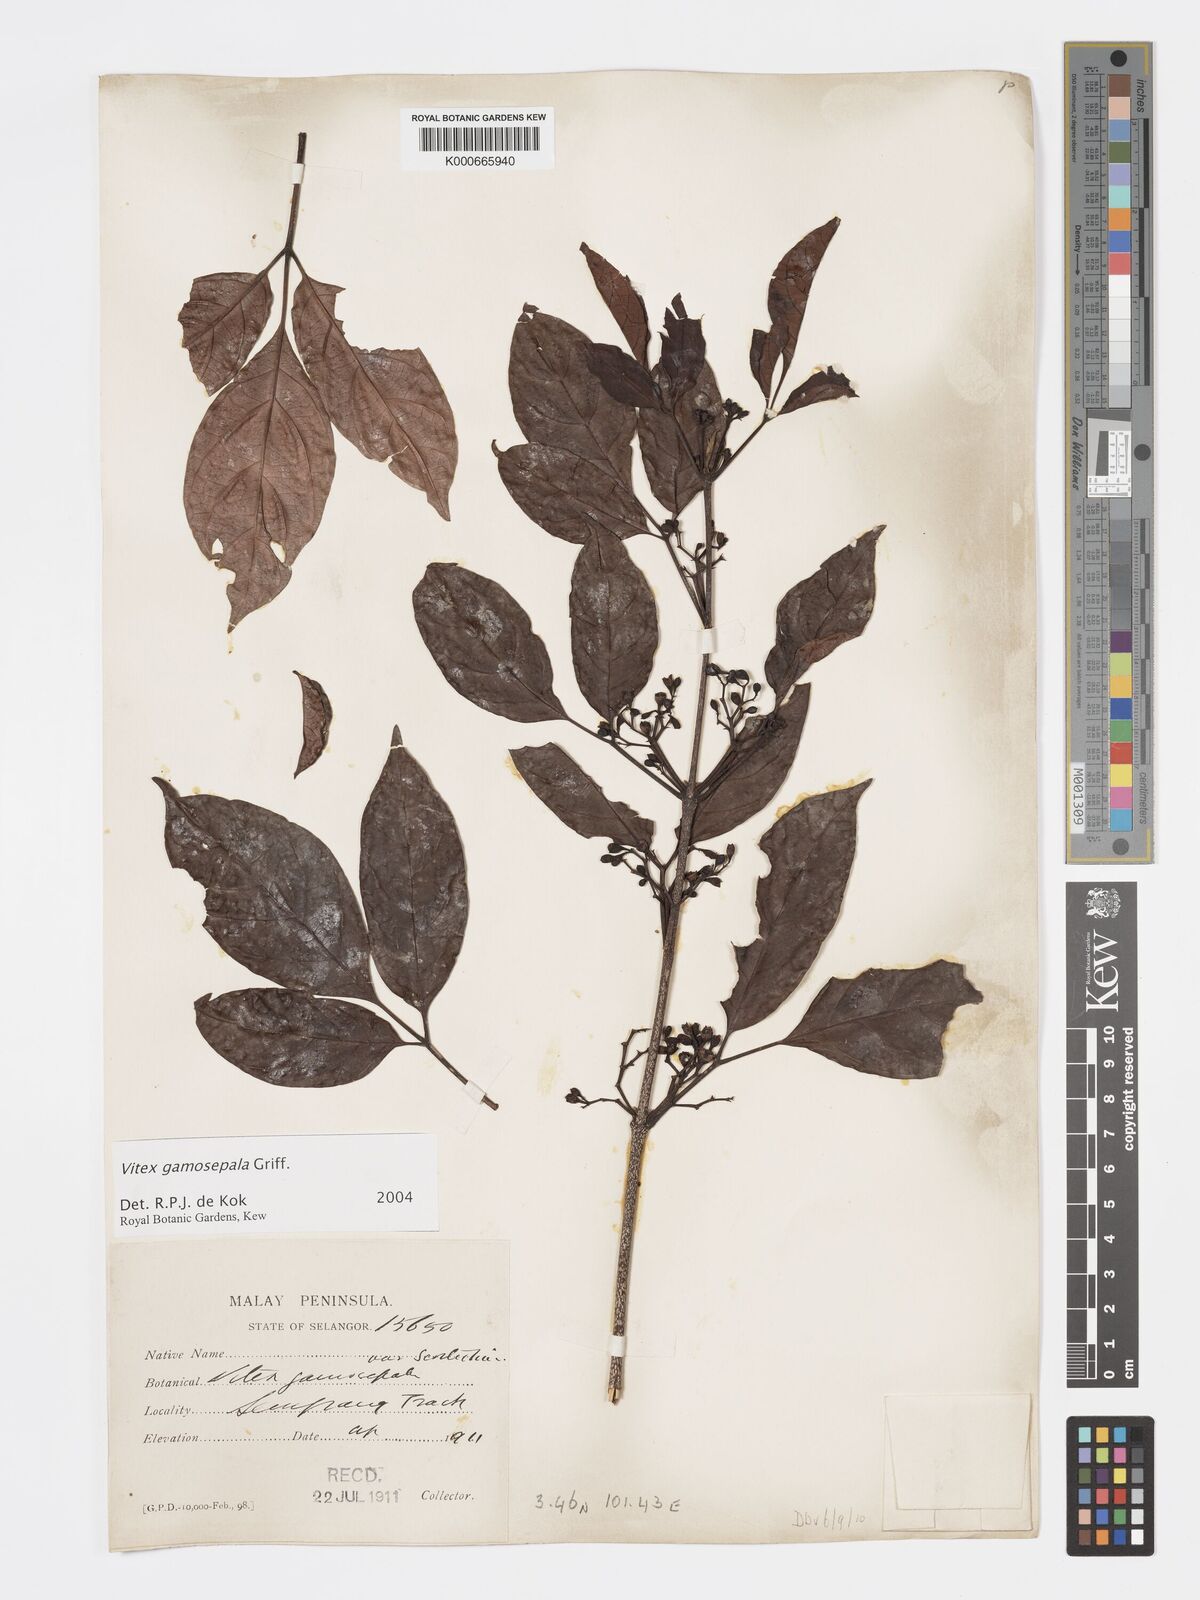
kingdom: Plantae
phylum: Tracheophyta
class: Magnoliopsida
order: Lamiales
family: Lamiaceae
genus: Vitex
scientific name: Vitex gamosepala
